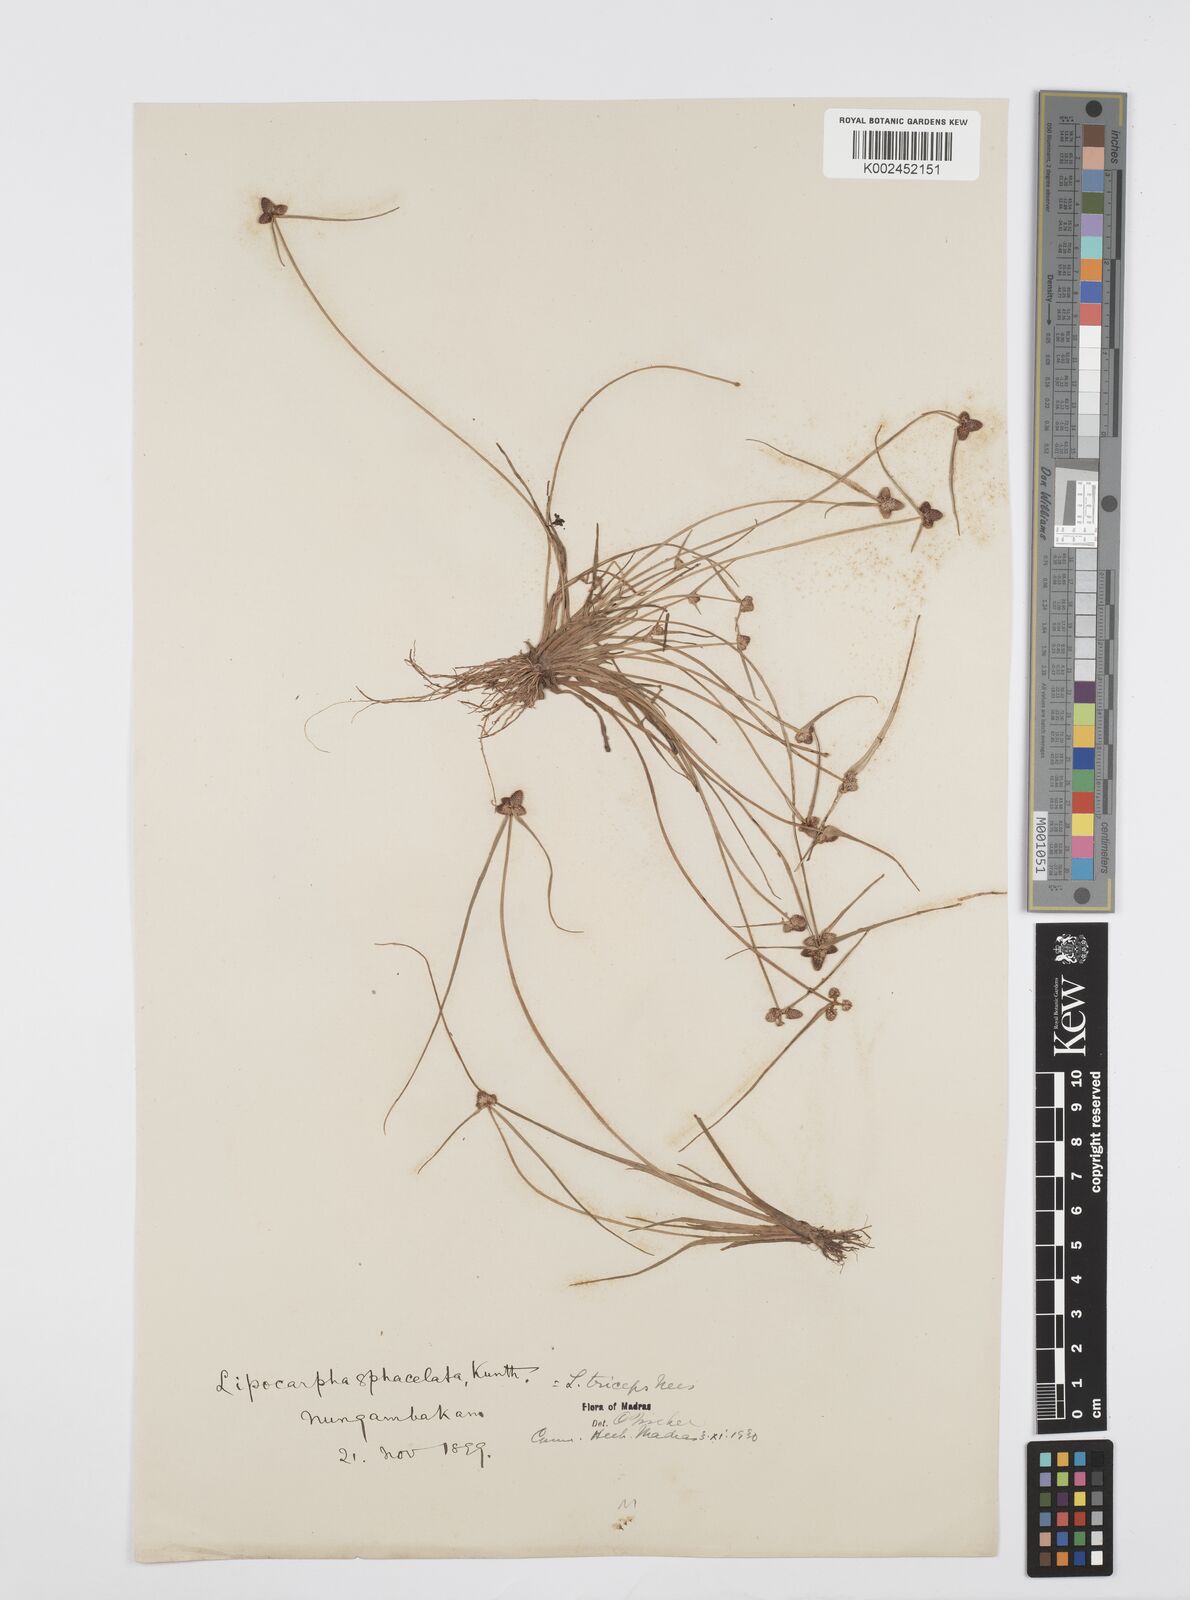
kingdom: Plantae
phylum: Tracheophyta
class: Liliopsida
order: Poales
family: Cyperaceae
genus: Cyperus
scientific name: Cyperus sphacelatus
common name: Roadside flatsedge
